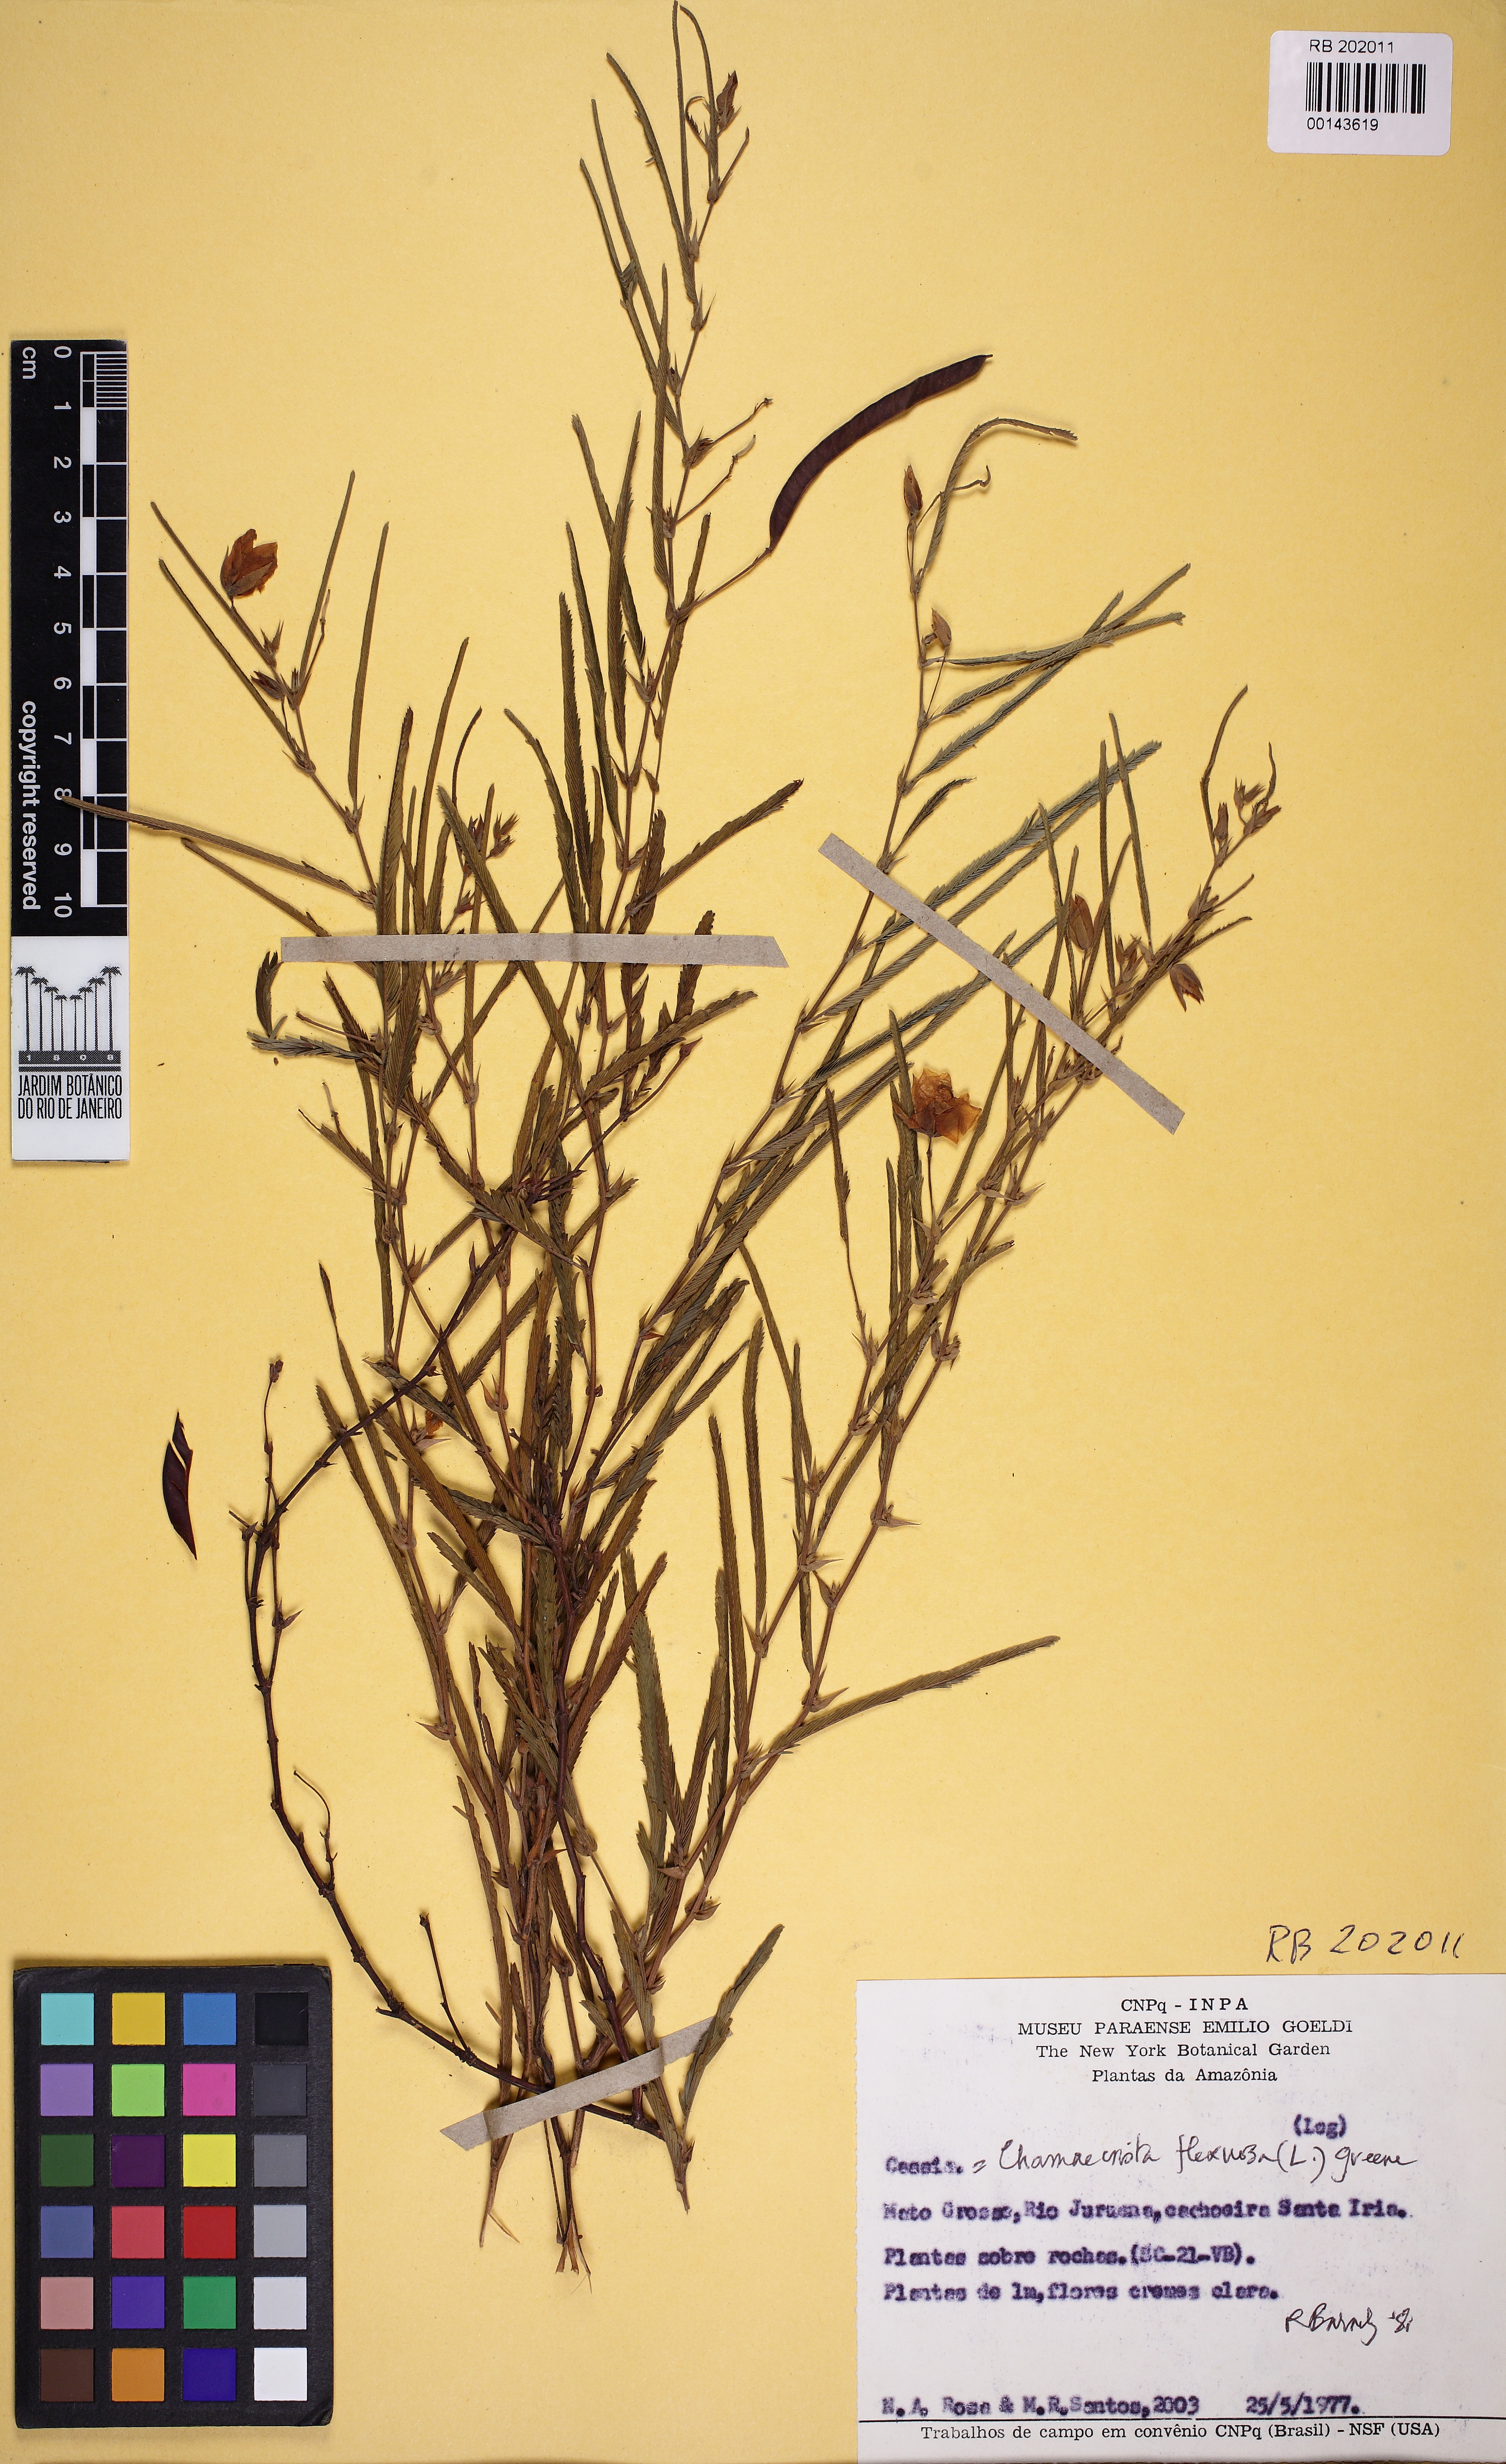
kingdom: Plantae
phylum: Tracheophyta
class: Magnoliopsida
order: Fabales
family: Fabaceae
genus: Chamaecrista
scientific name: Chamaecrista flexuosa
